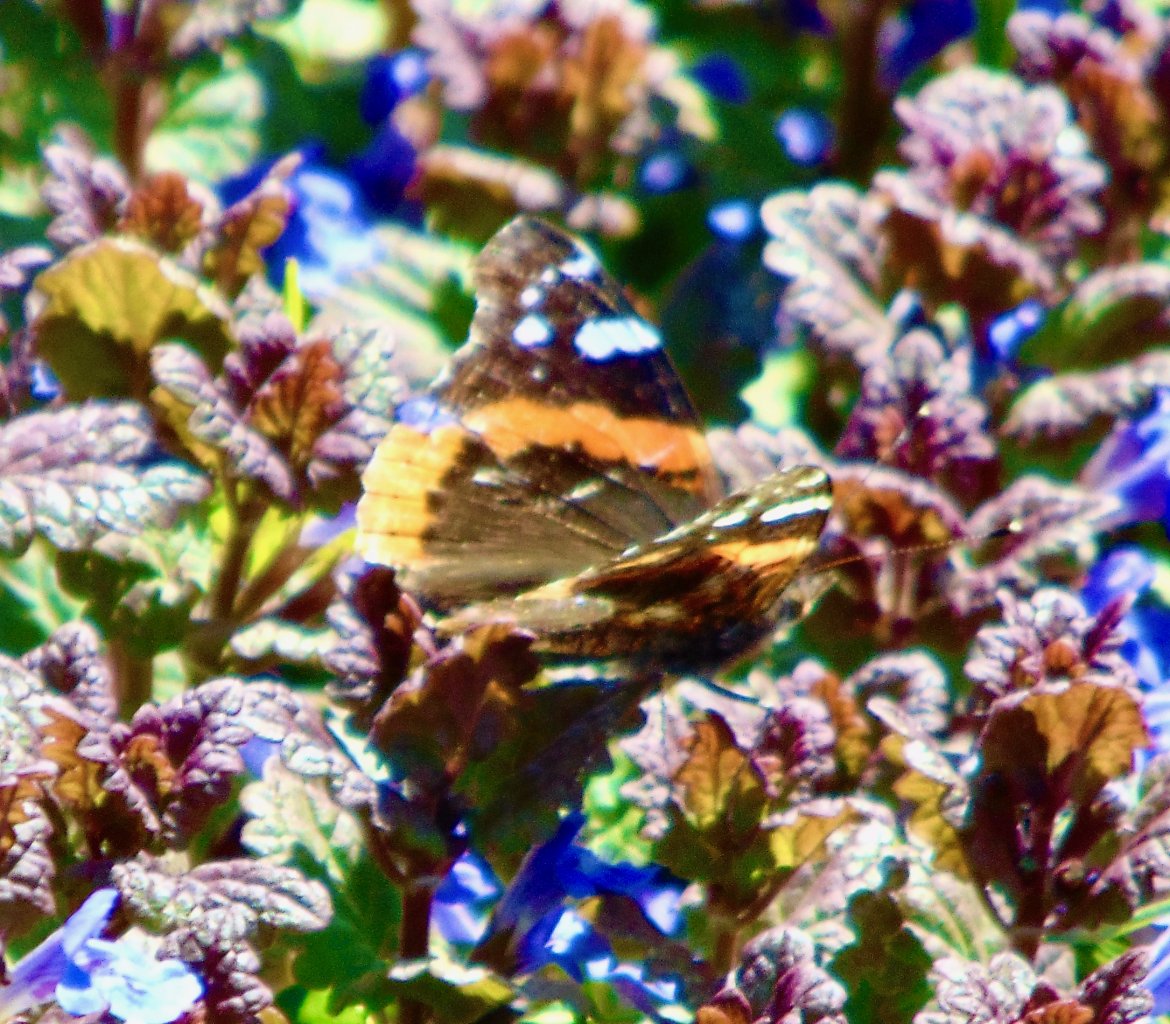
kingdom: Animalia
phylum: Arthropoda
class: Insecta
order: Lepidoptera
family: Nymphalidae
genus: Vanessa
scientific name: Vanessa atalanta
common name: Red Admiral
